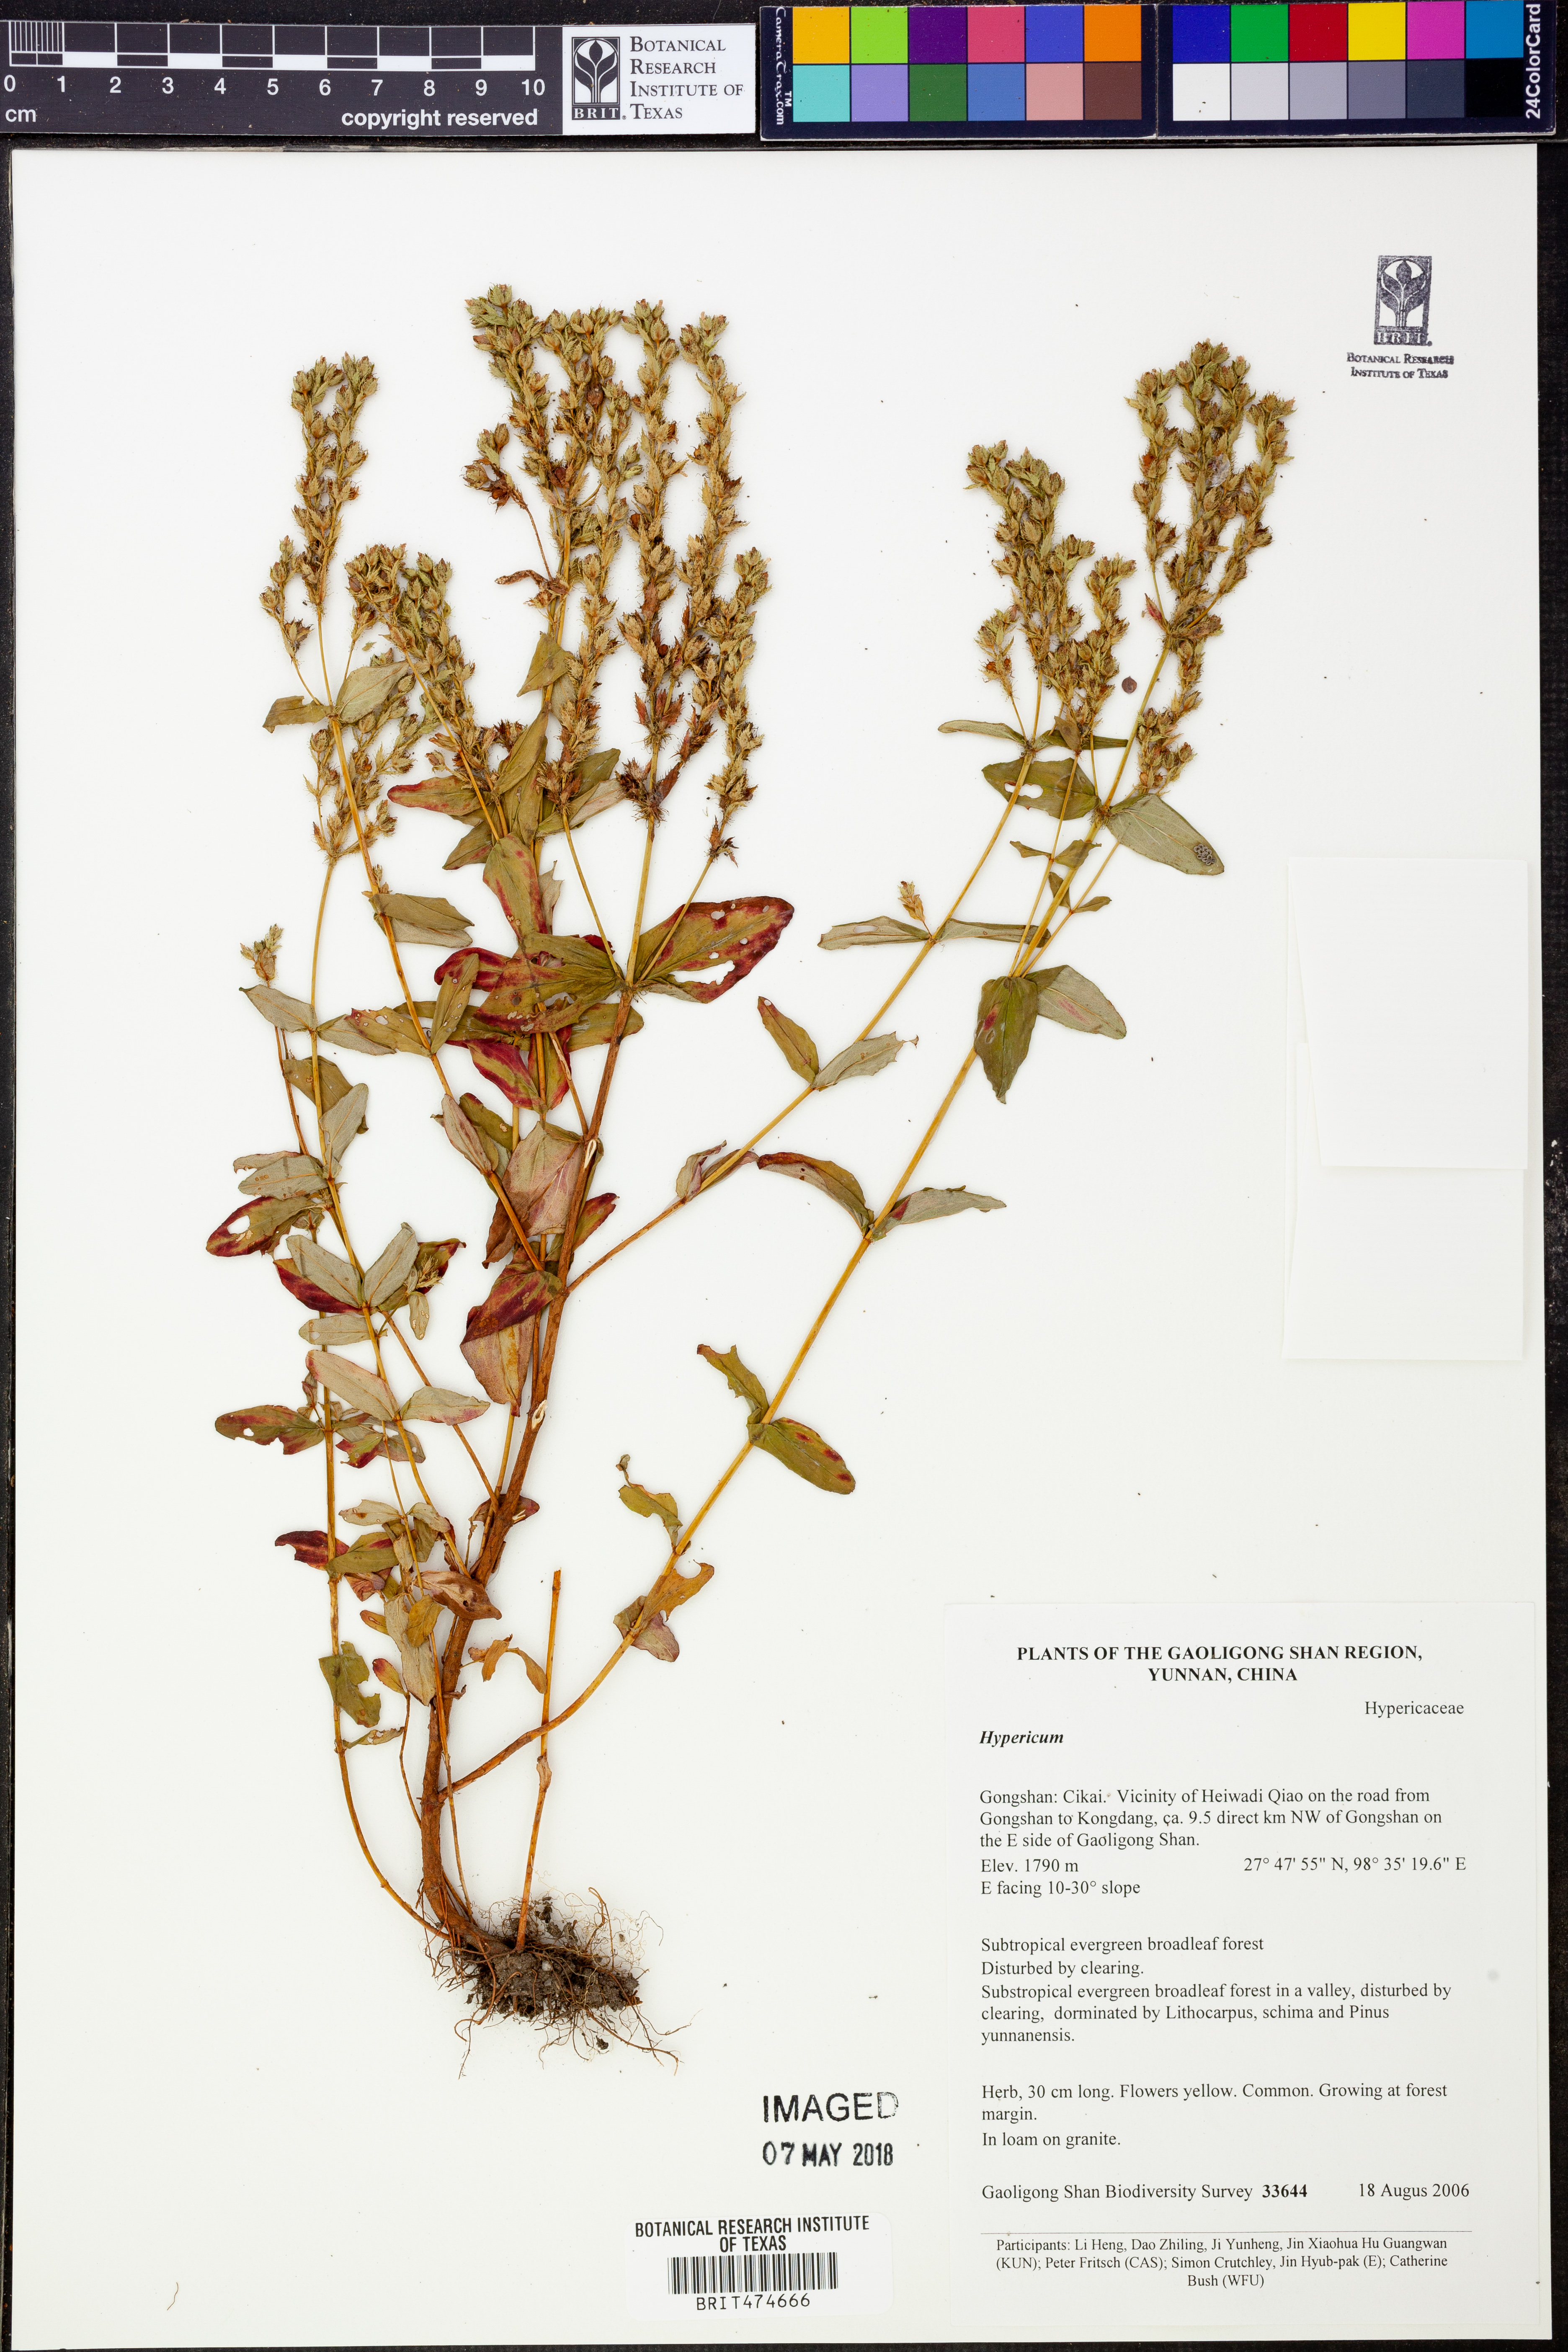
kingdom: Plantae
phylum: Tracheophyta
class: Magnoliopsida
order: Malpighiales
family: Hypericaceae
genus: Hypericum
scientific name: Hypericum
